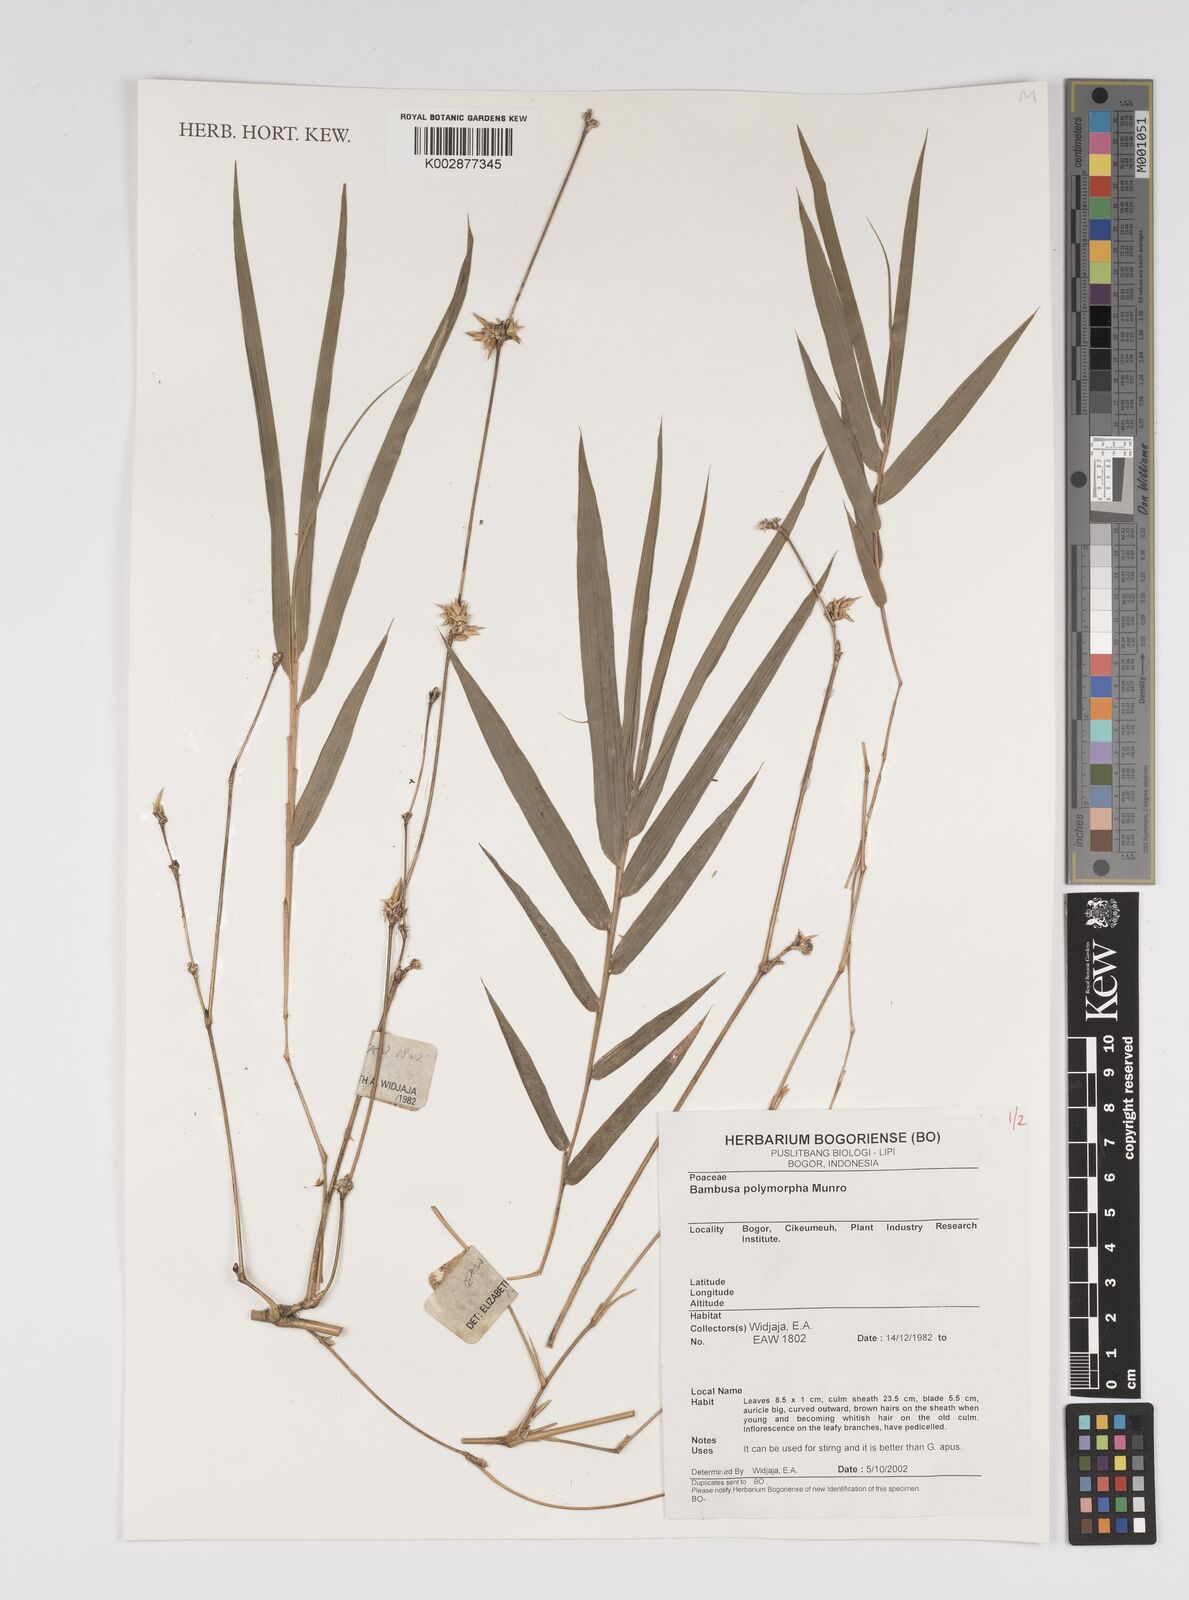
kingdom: Plantae
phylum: Tracheophyta
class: Liliopsida
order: Poales
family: Poaceae
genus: Bambusa
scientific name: Bambusa polymorpha
